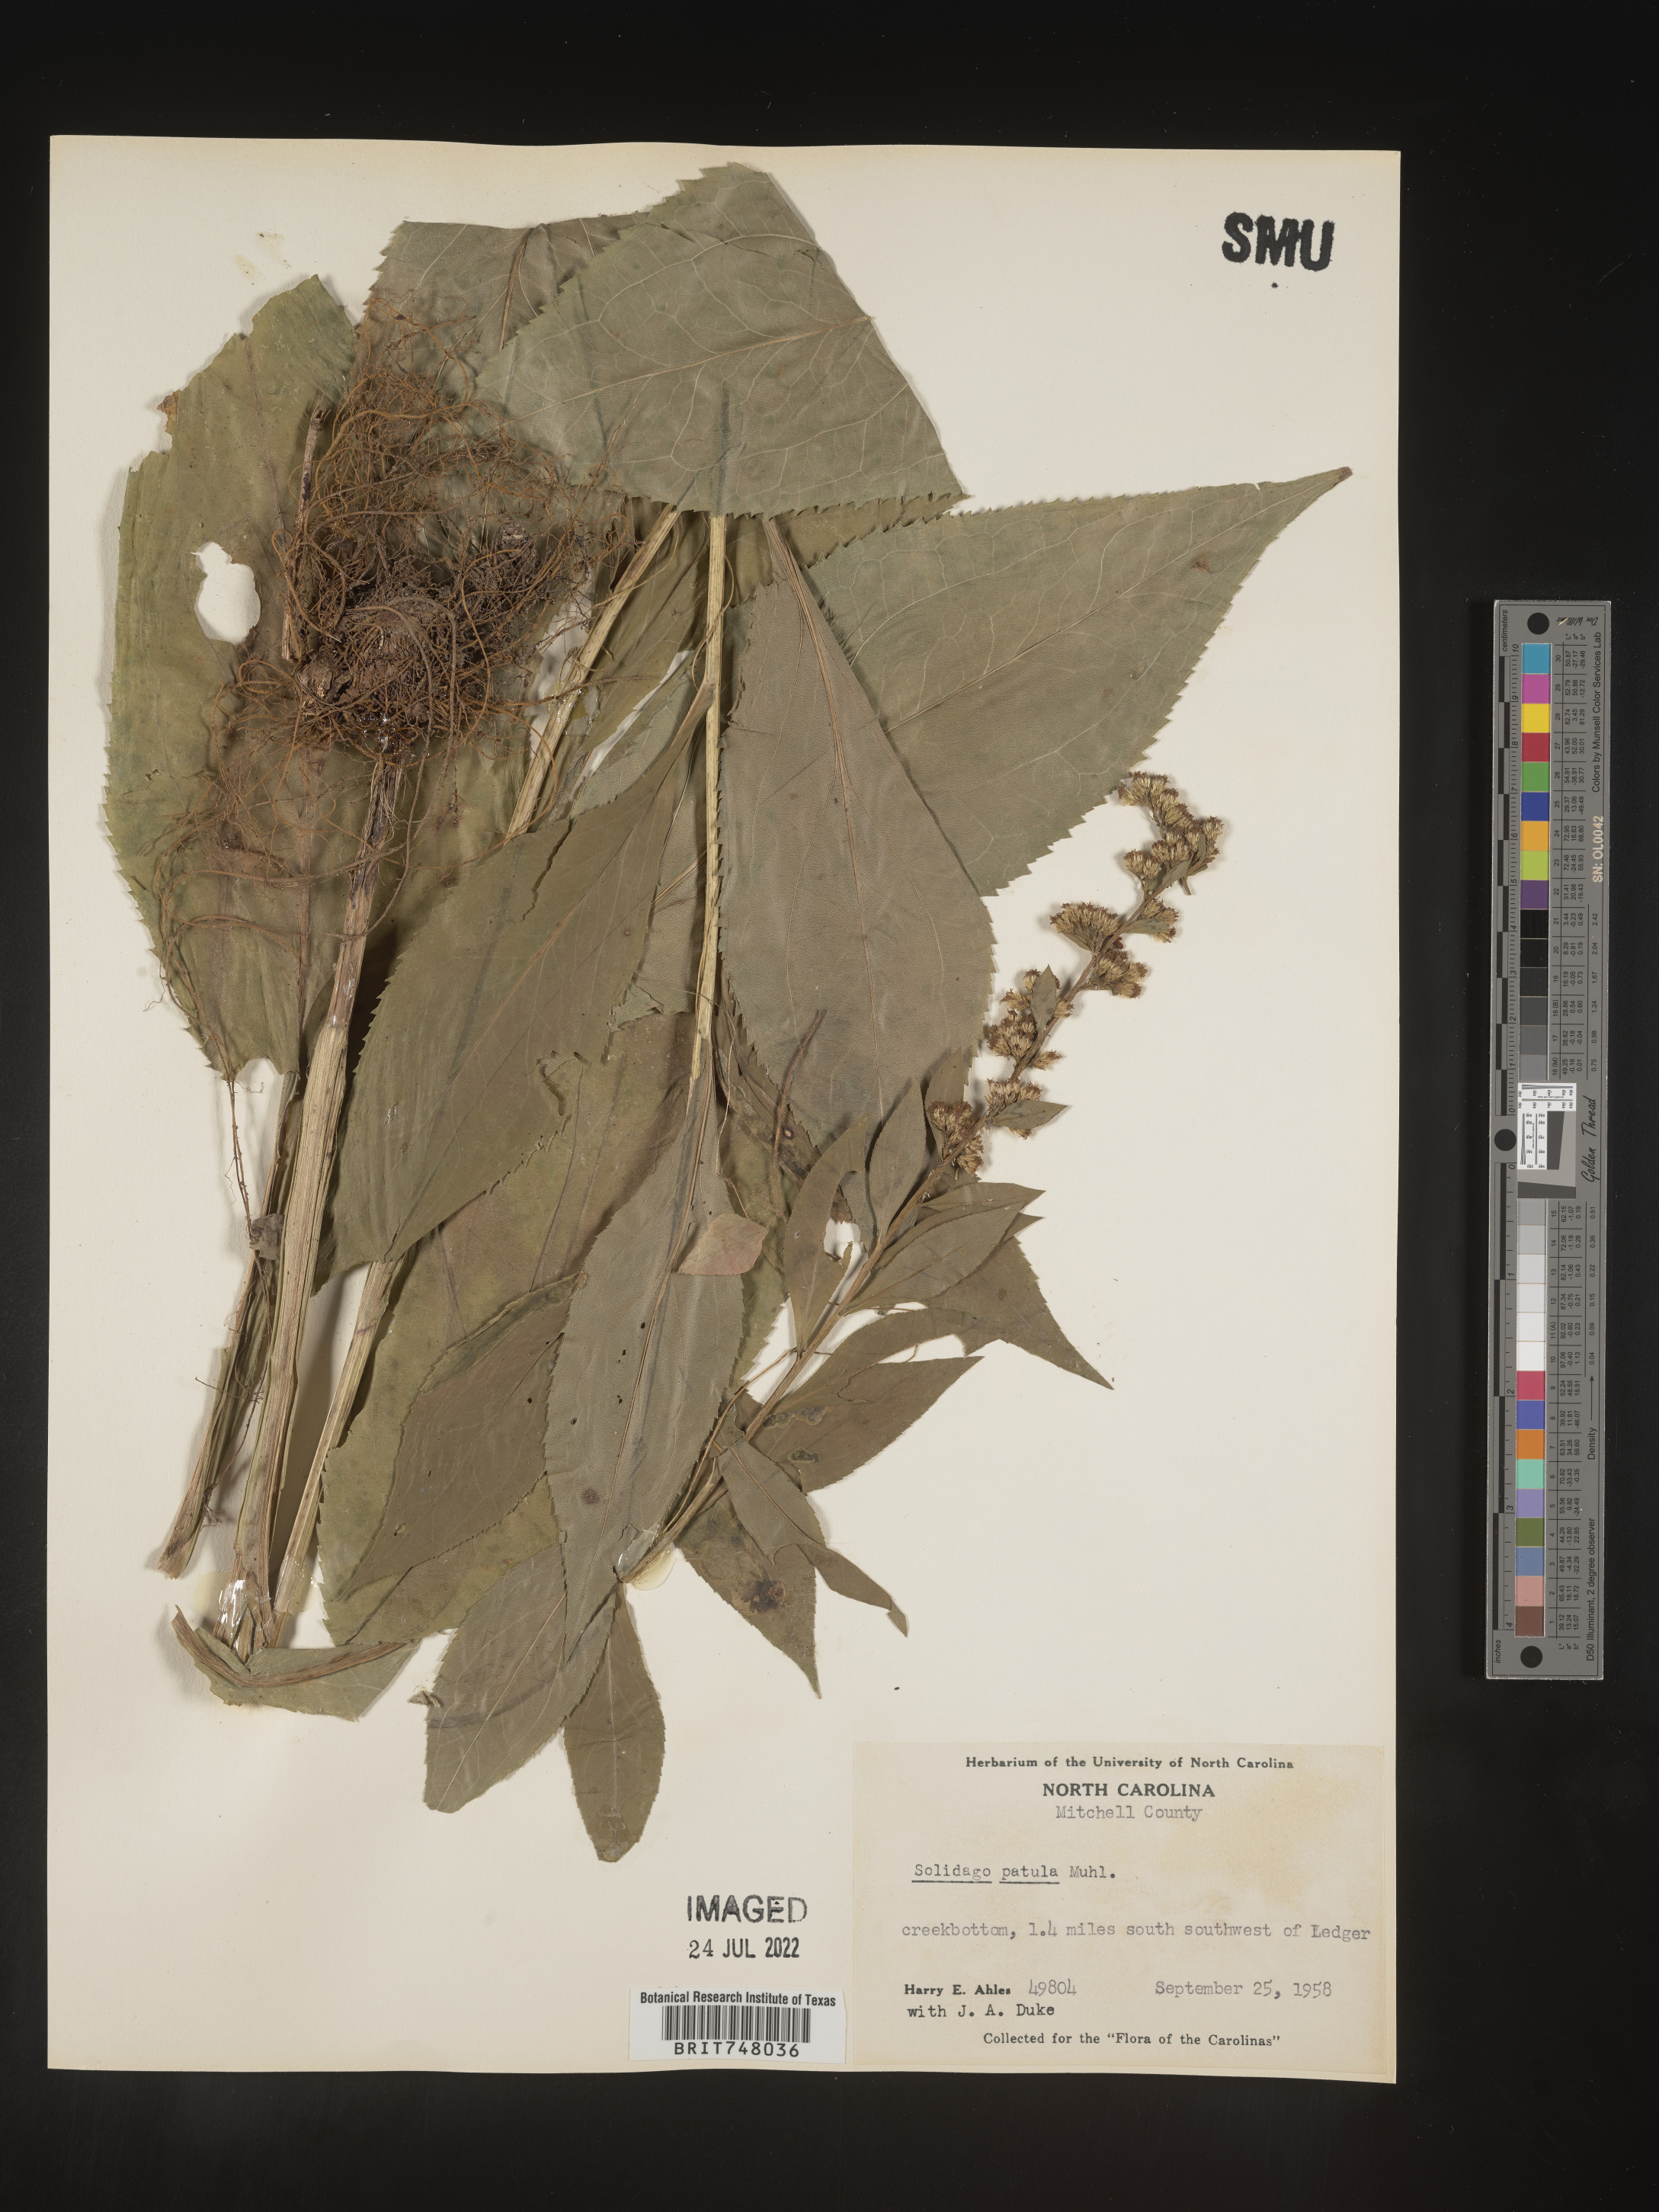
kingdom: Plantae
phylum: Tracheophyta
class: Magnoliopsida
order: Asterales
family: Asteraceae
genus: Solidago
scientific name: Solidago patula
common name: Rough-leaf goldenrod
